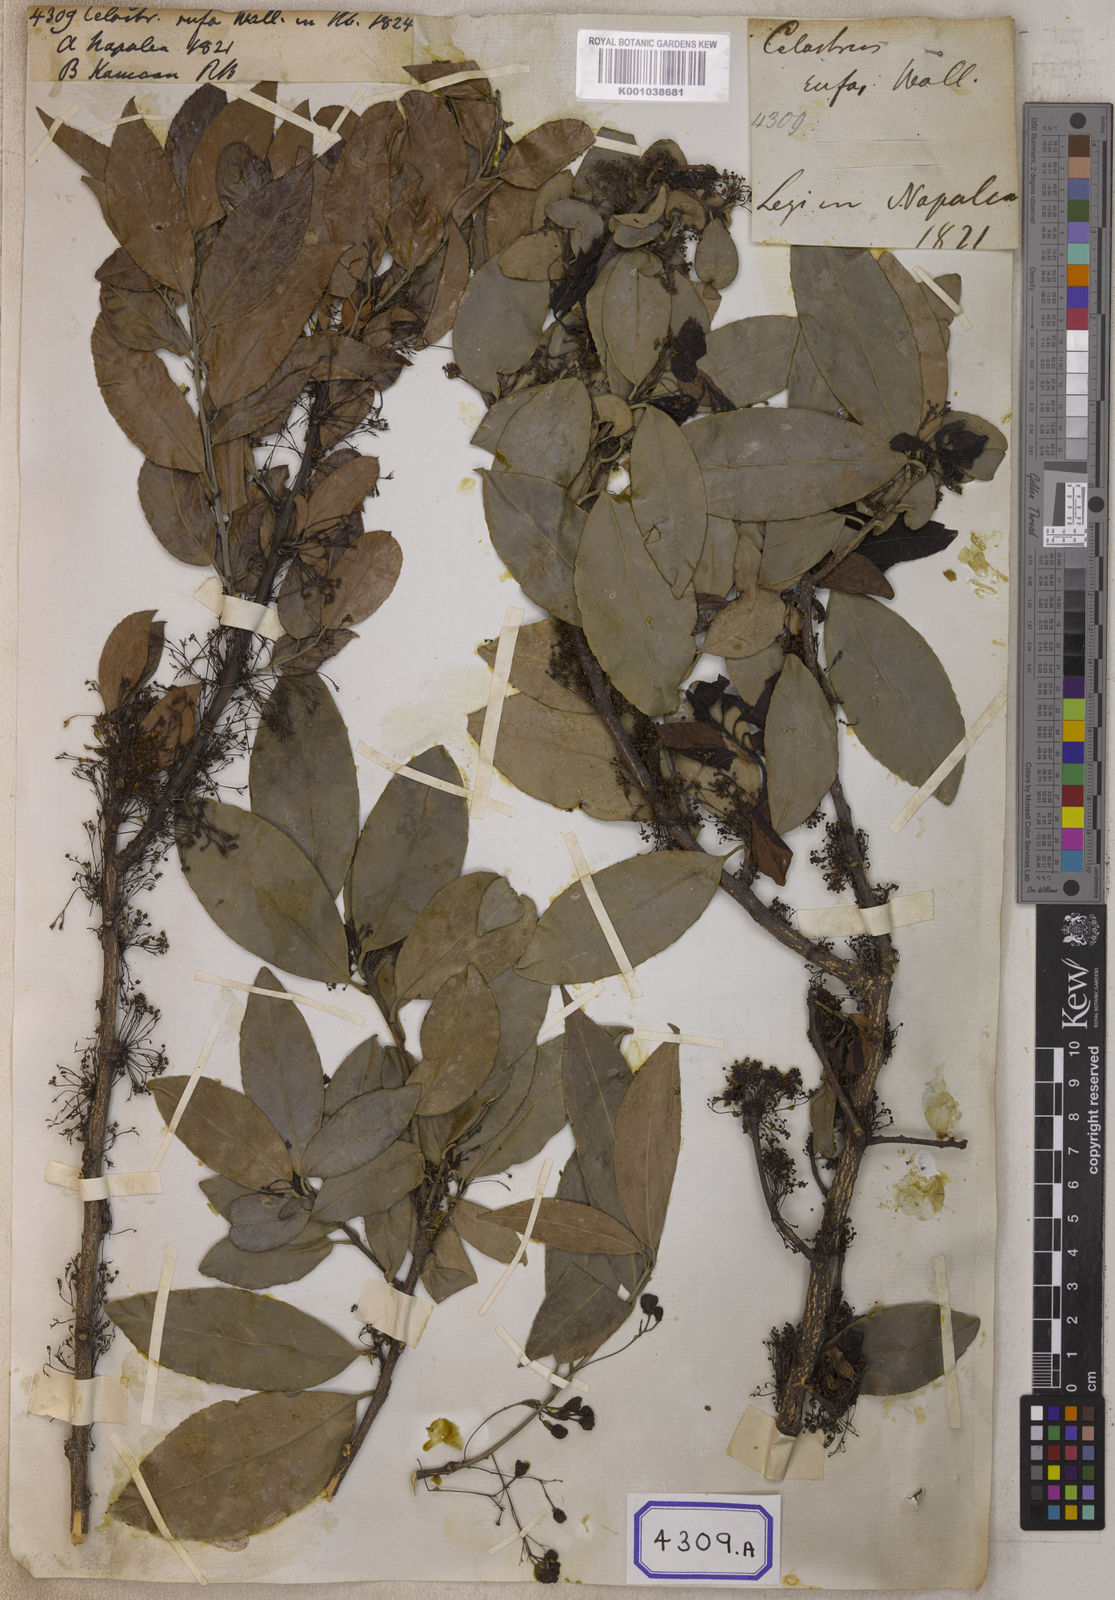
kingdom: Plantae
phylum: Tracheophyta
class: Magnoliopsida
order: Celastrales
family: Celastraceae
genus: Gymnosporia
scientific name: Gymnosporia rufa
